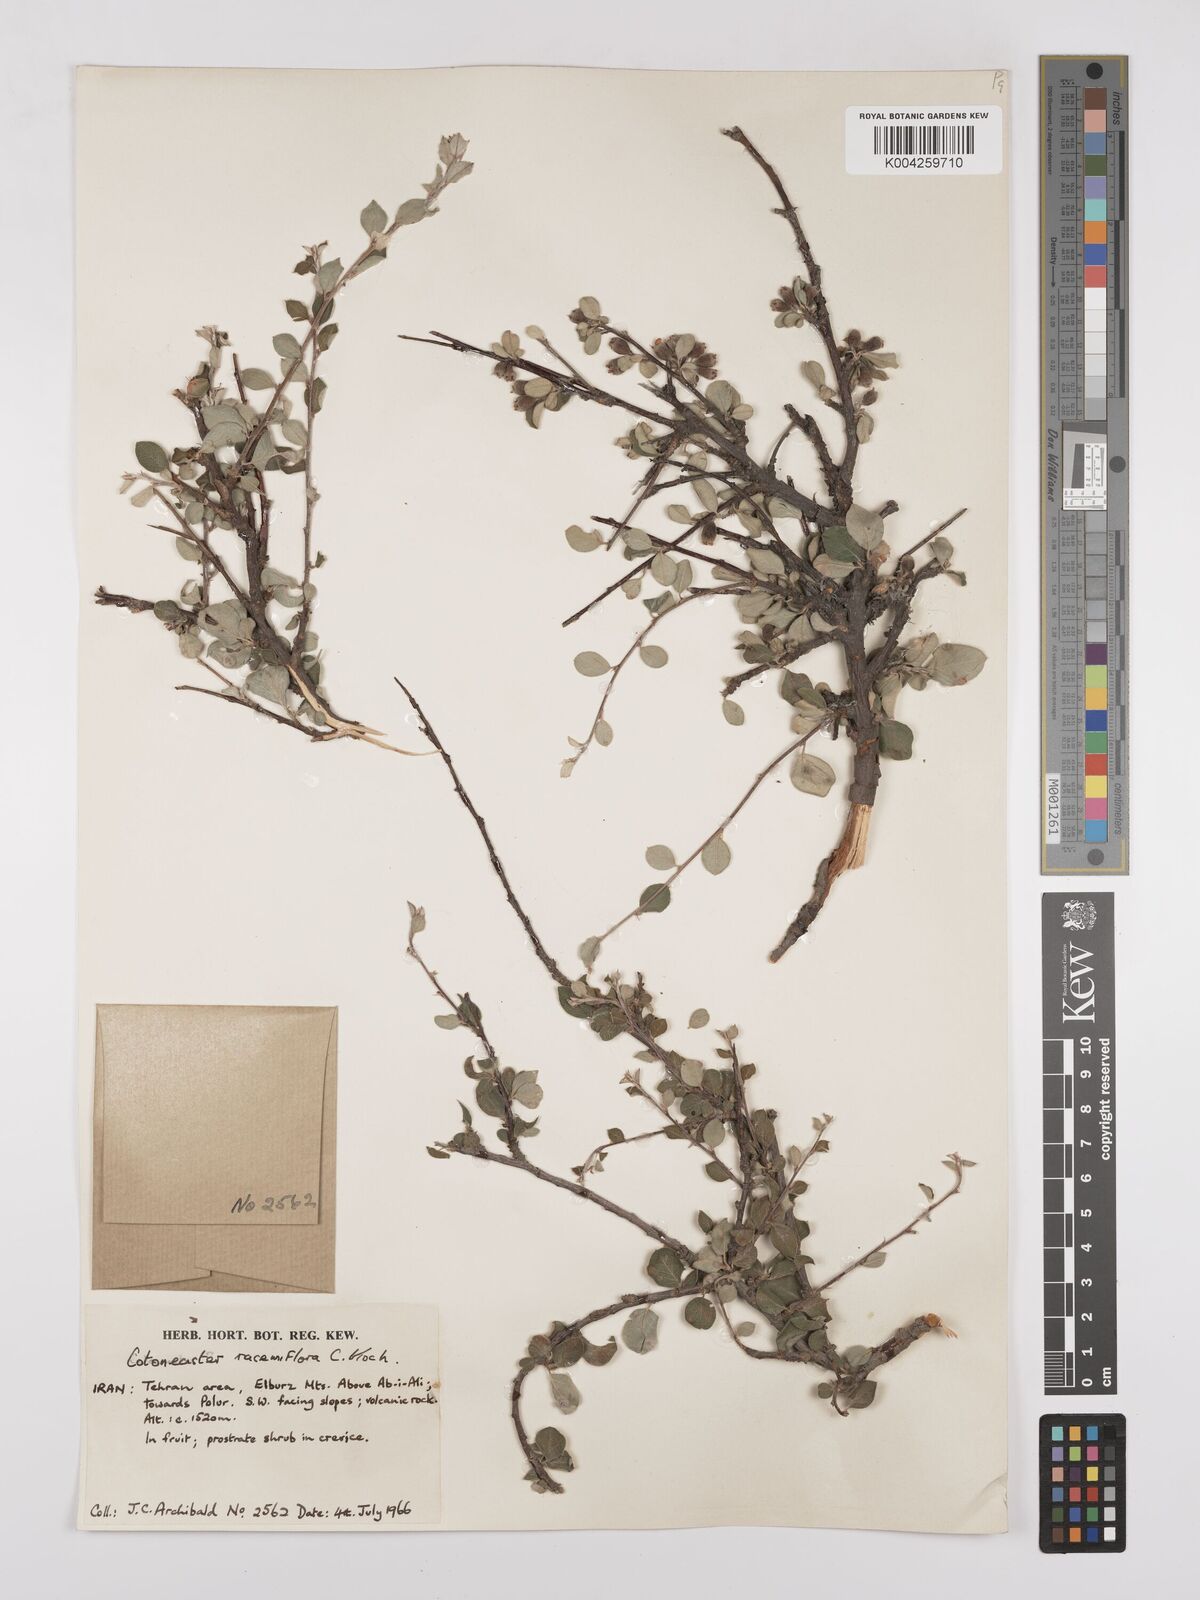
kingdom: Plantae
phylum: Tracheophyta
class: Magnoliopsida
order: Rosales
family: Rosaceae
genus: Cotoneaster
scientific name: Cotoneaster racemiflorus
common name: Cluster-flower cotoneaster
